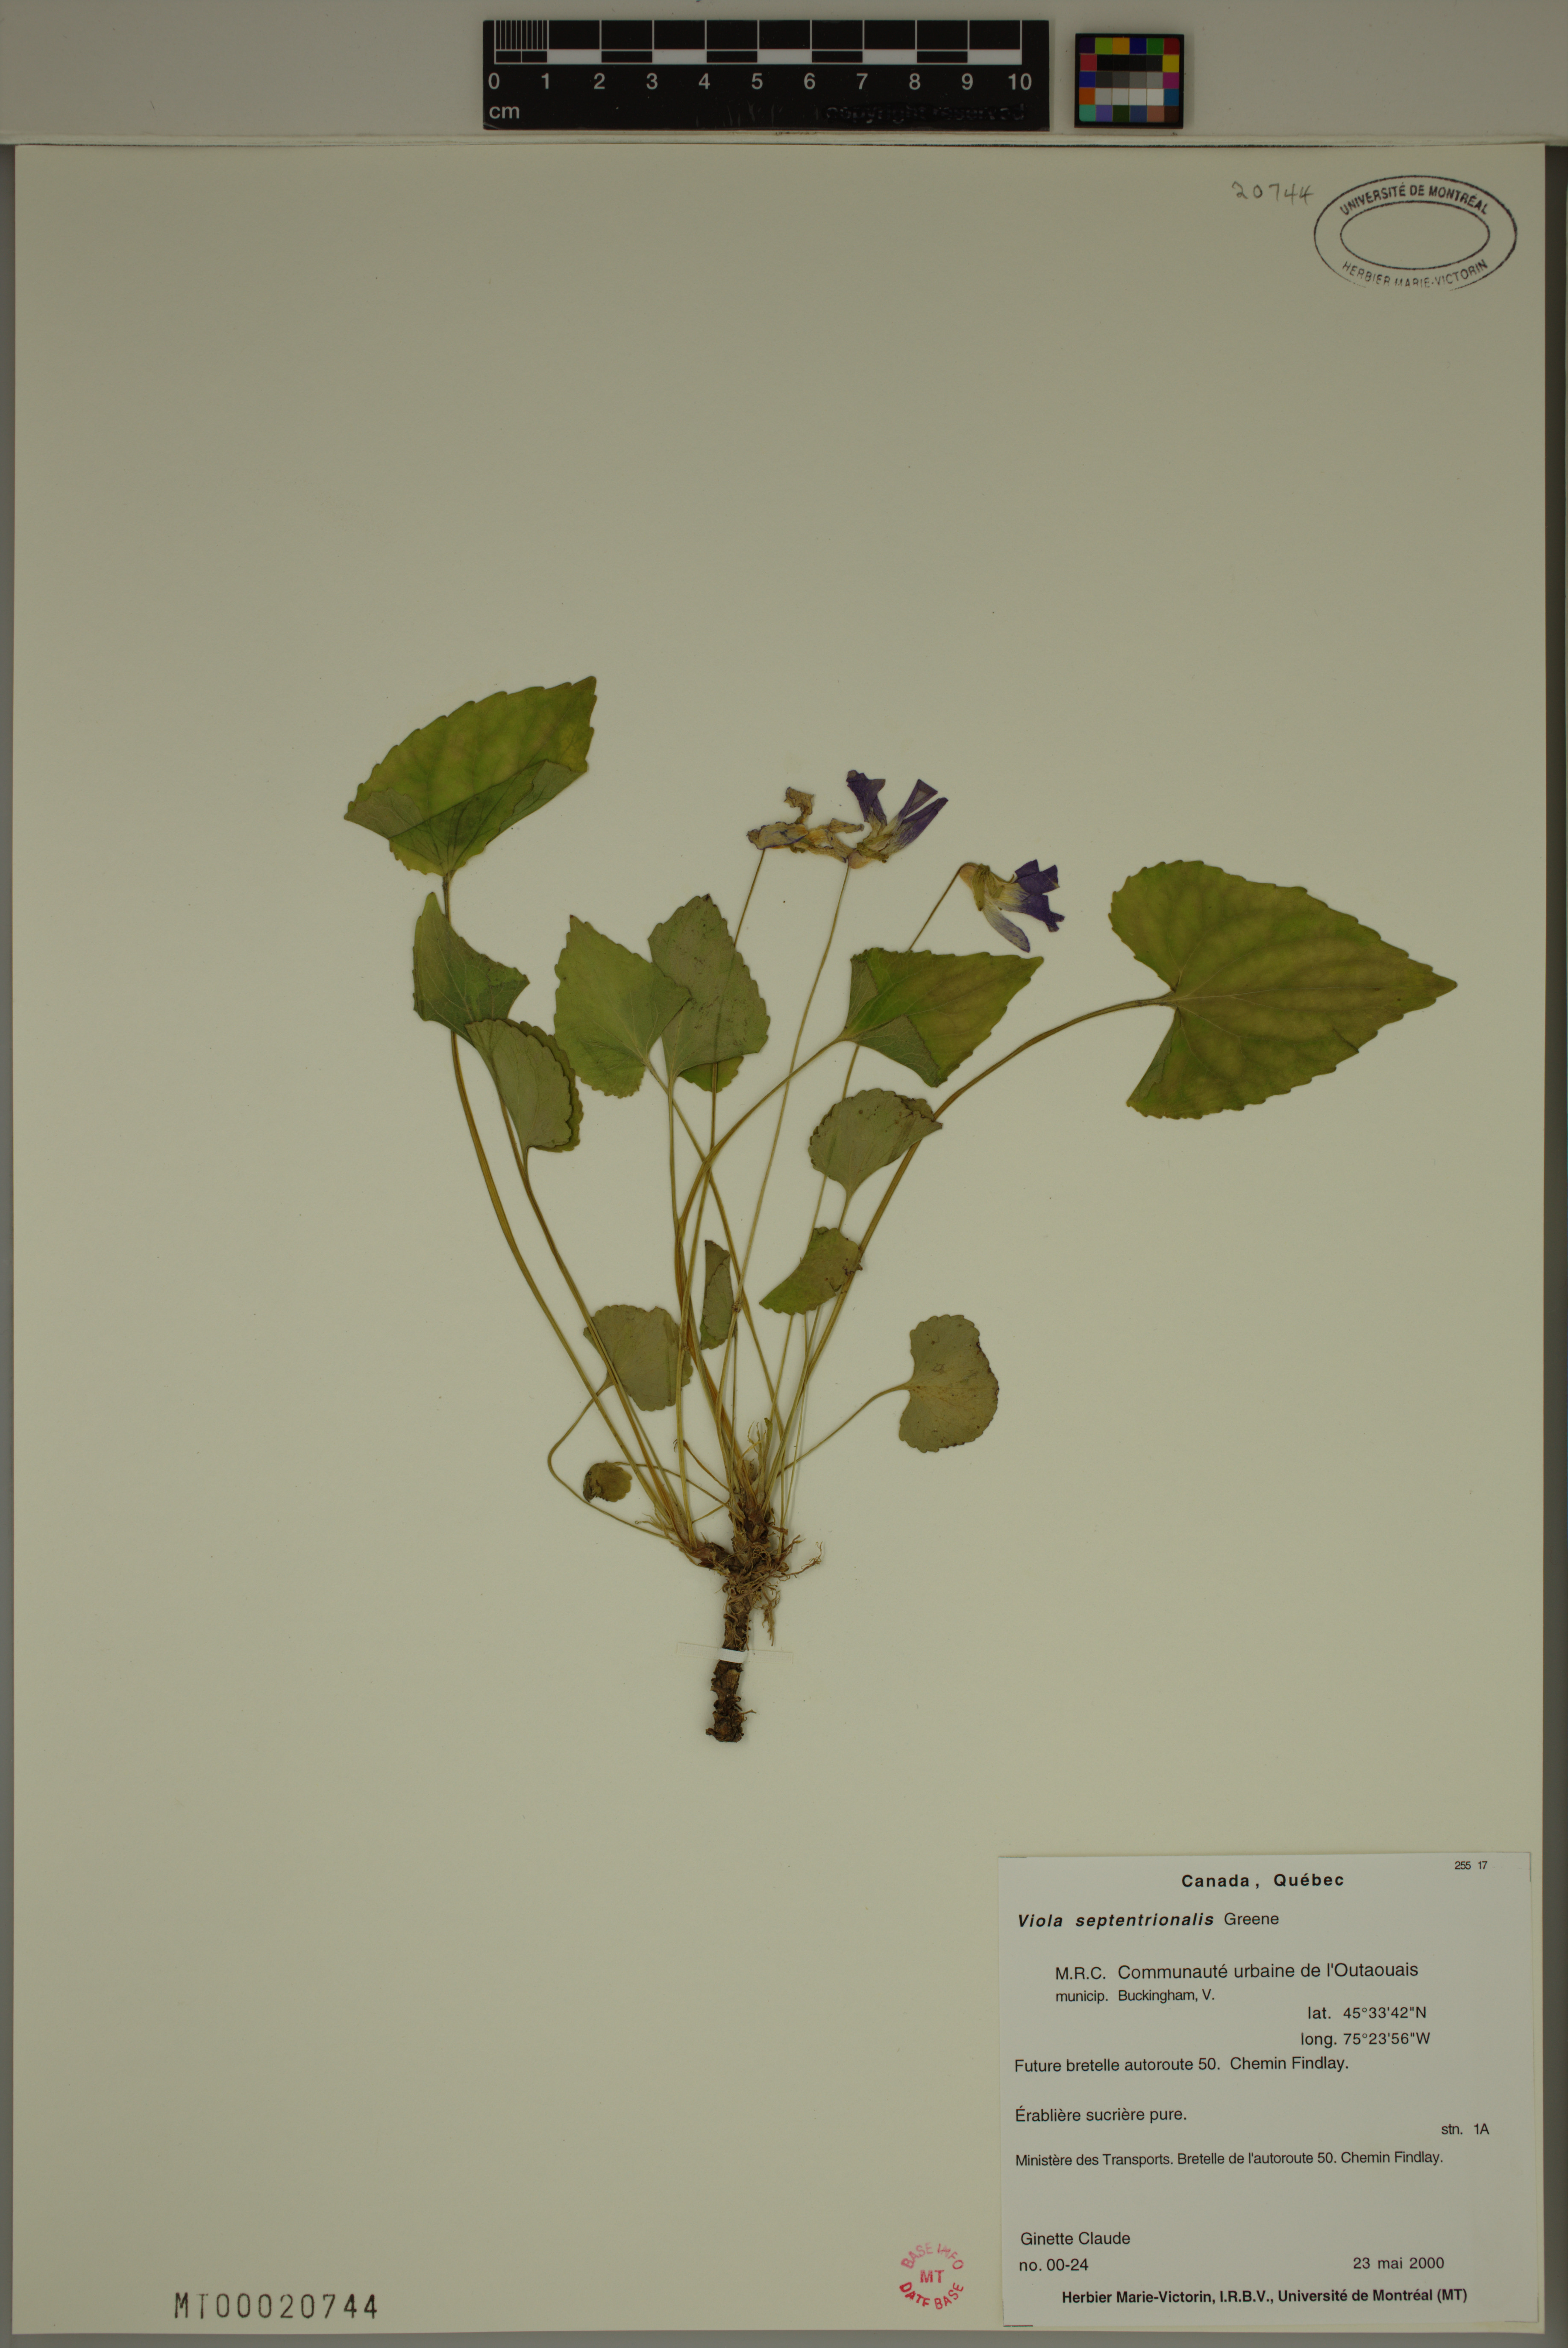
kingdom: Plantae
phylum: Tracheophyta
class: Magnoliopsida
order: Malpighiales
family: Violaceae
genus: Viola
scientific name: Viola sororia
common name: Dooryard violet
